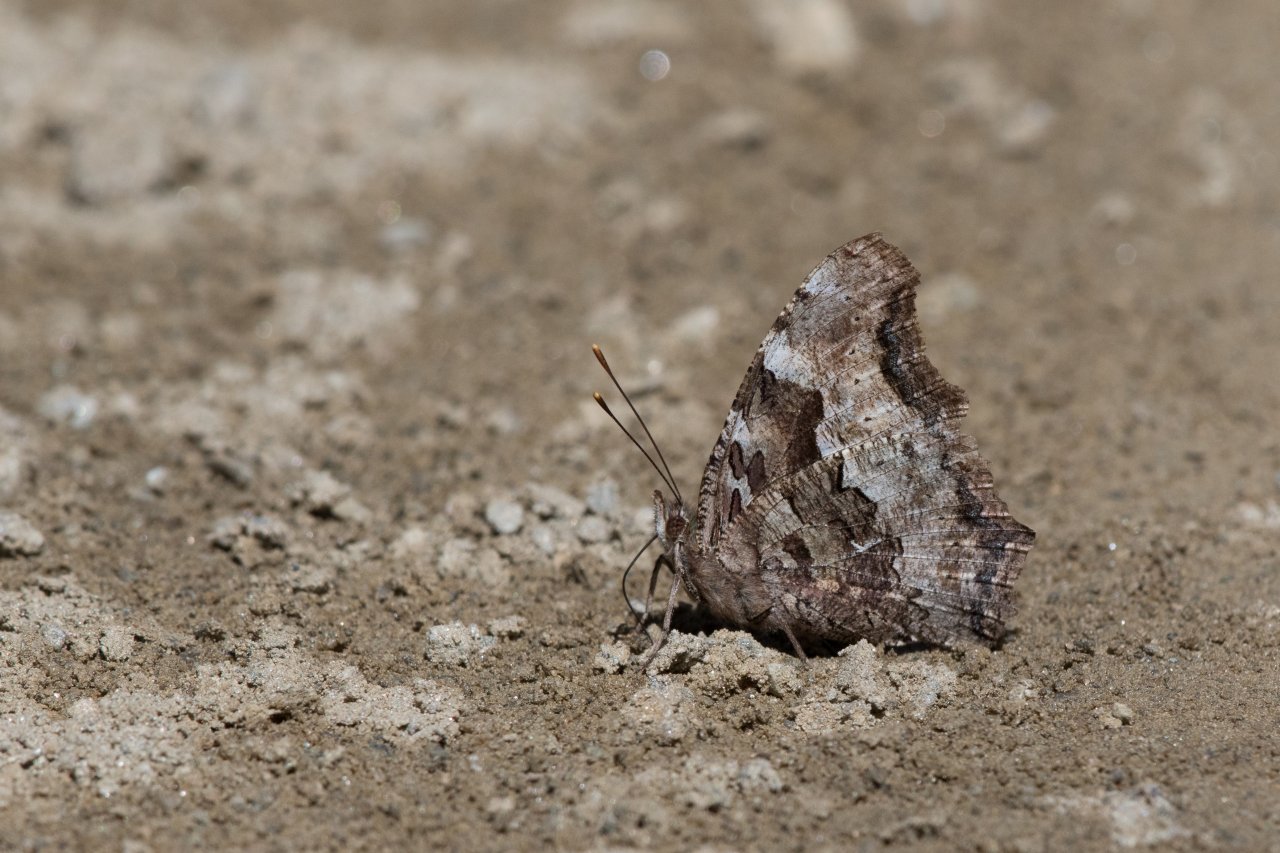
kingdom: Animalia
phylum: Arthropoda
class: Insecta
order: Lepidoptera
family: Nymphalidae
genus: Polygonia
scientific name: Polygonia vaualbum
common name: Compton Tortoiseshell
